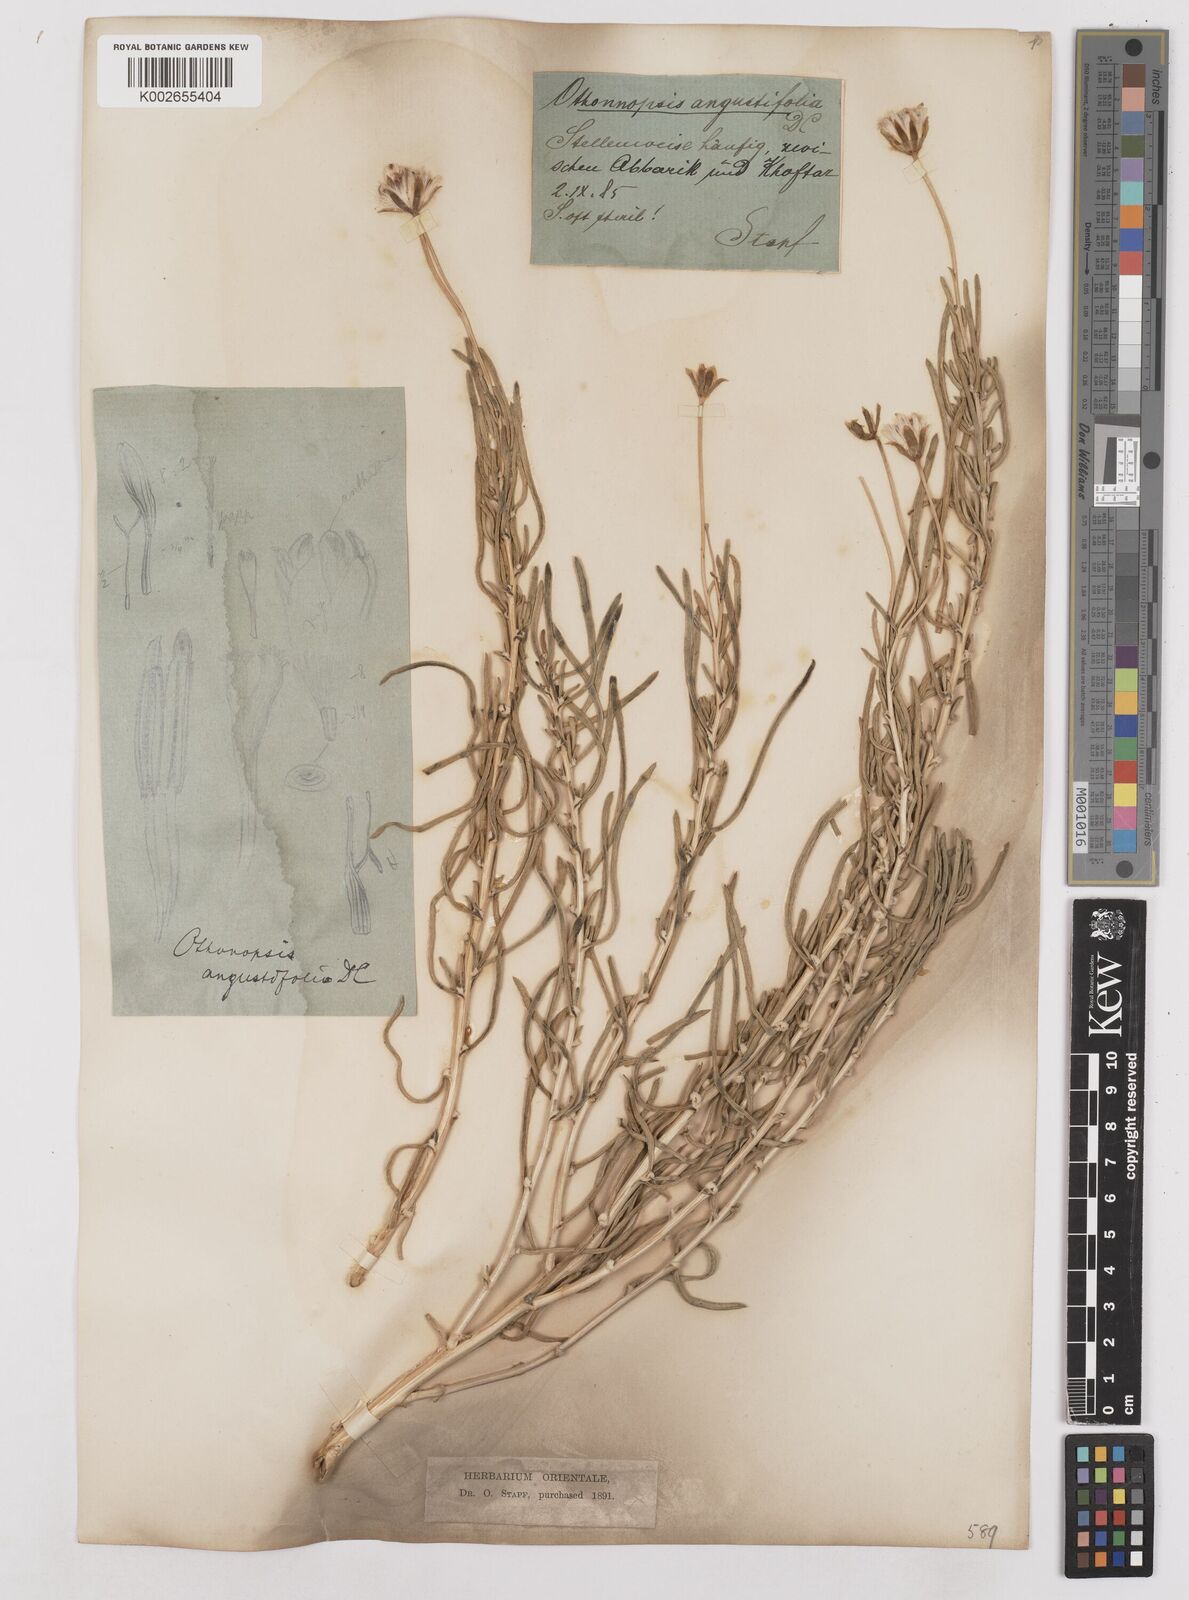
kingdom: Plantae
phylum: Tracheophyta
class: Magnoliopsida
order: Asterales
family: Asteraceae
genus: Hertia
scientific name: Hertia angustifolia
